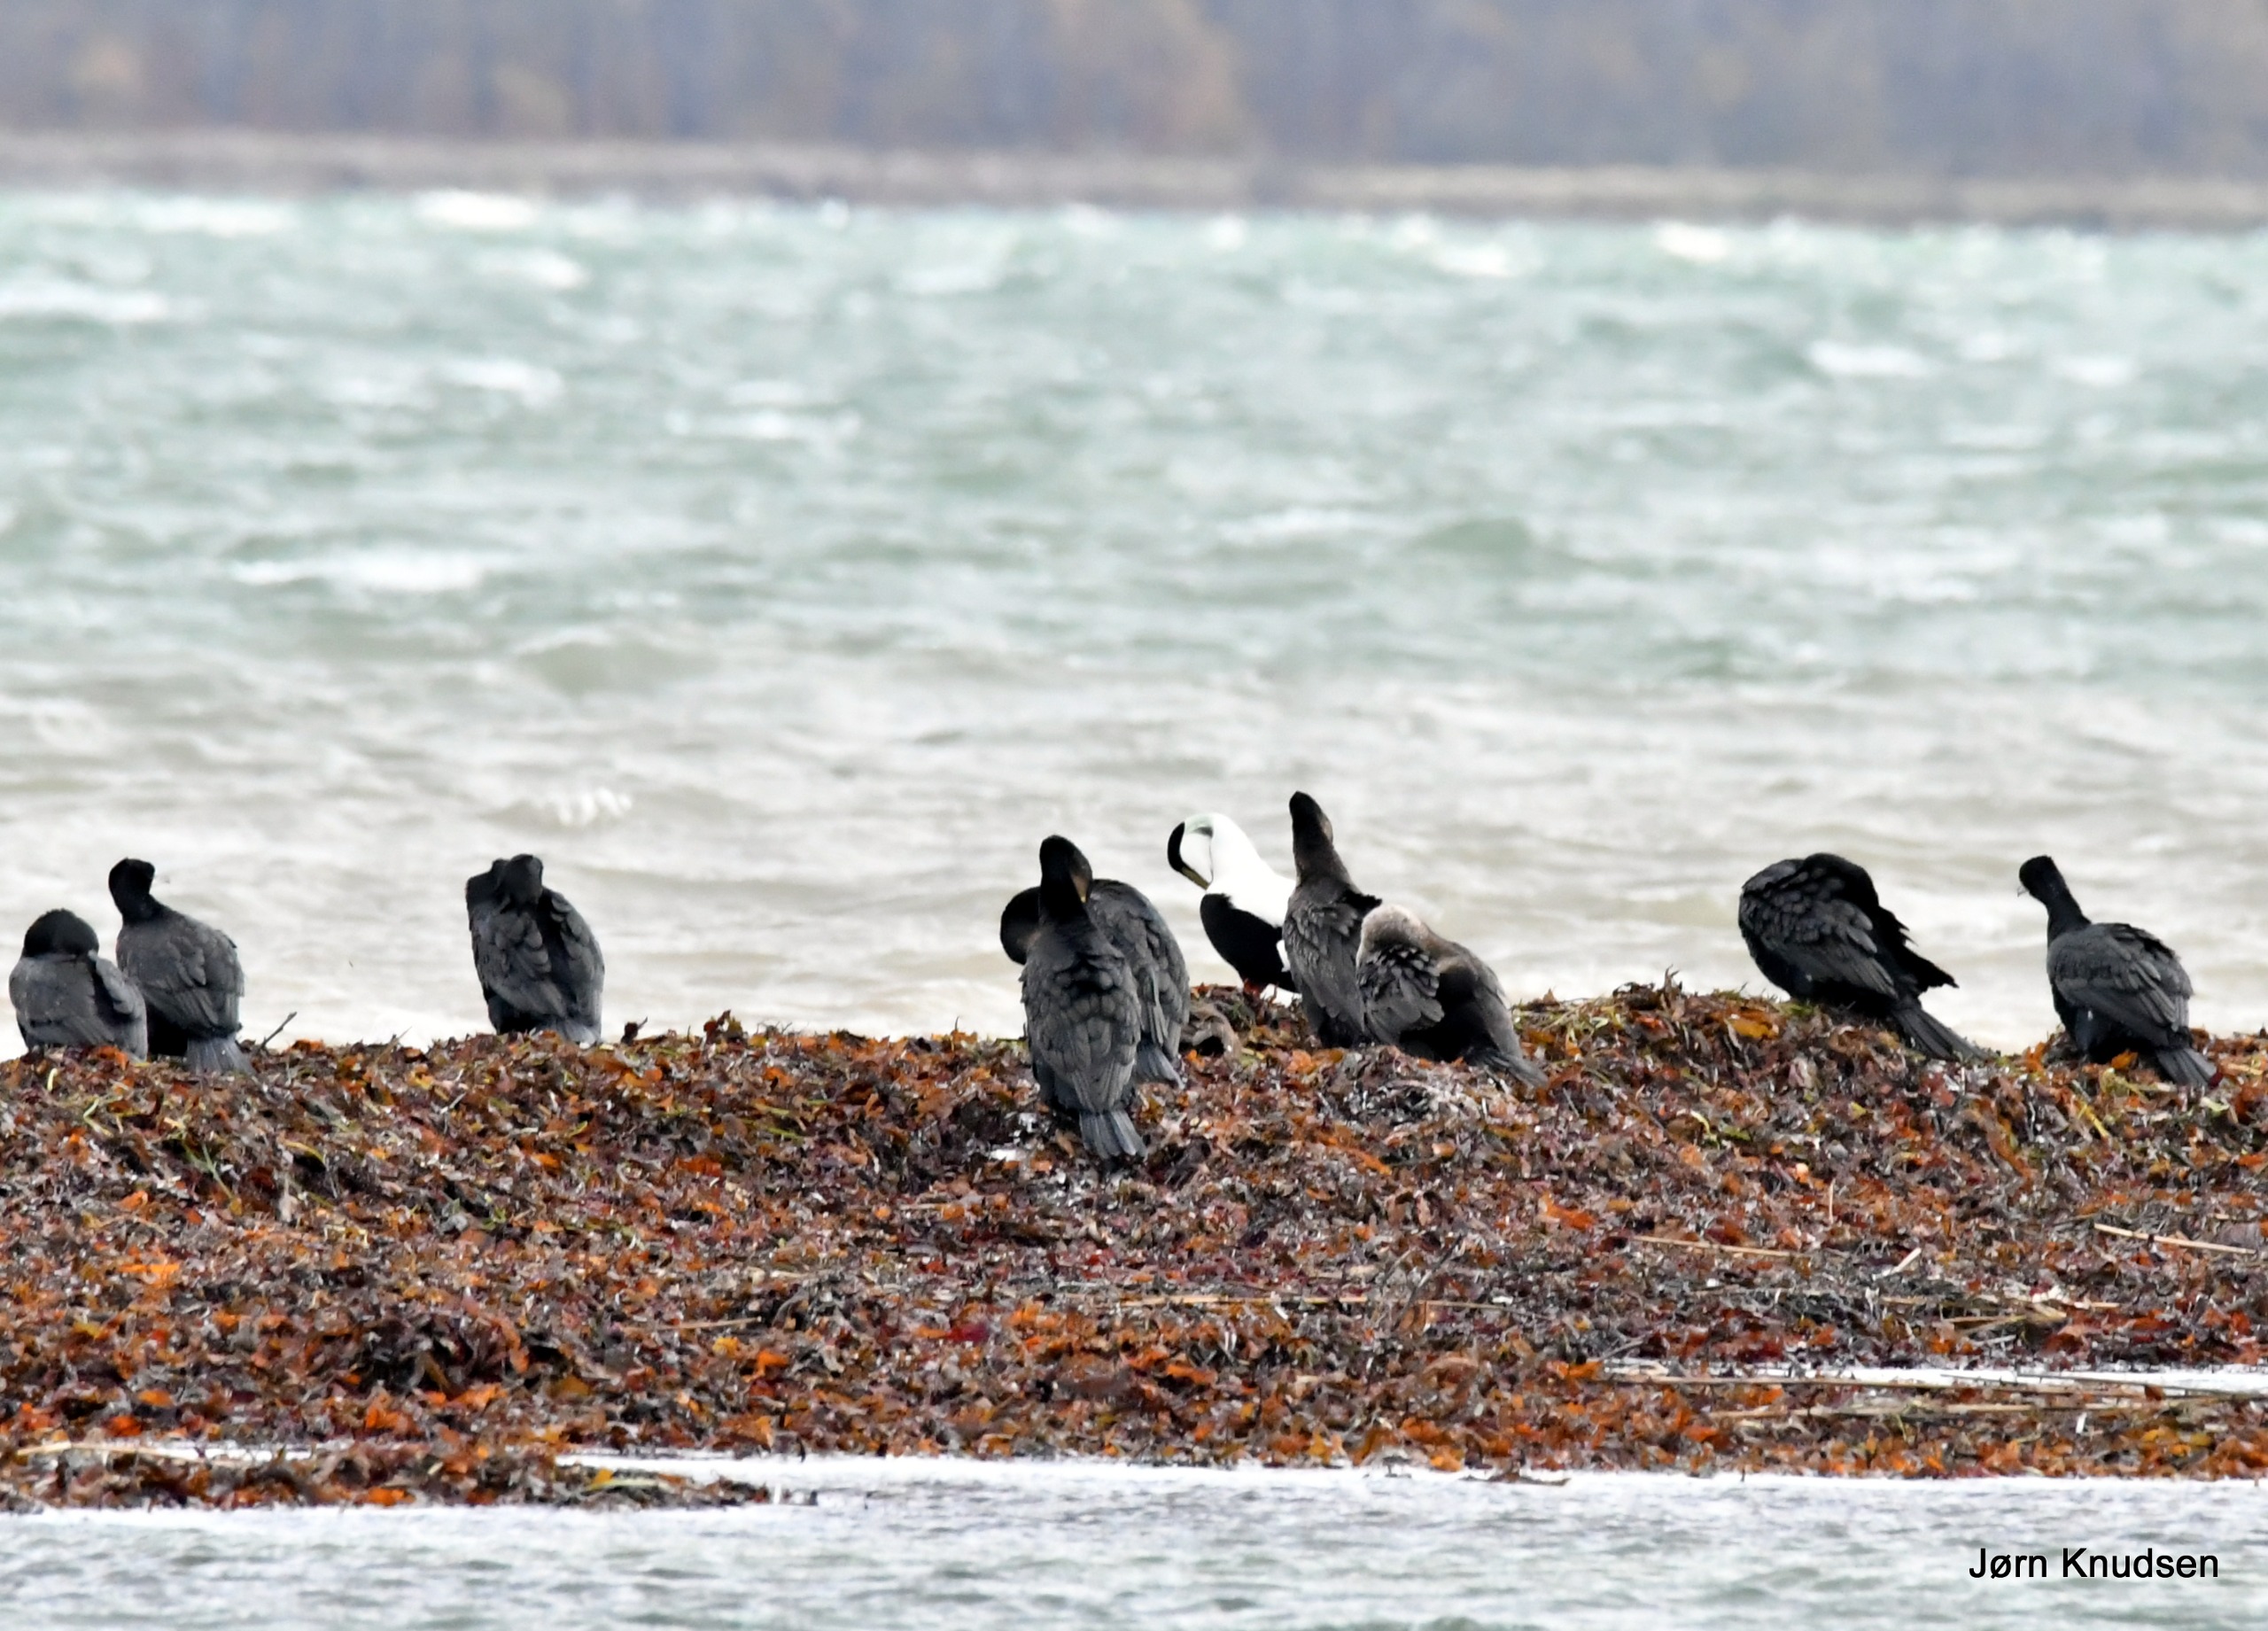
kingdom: Animalia
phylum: Chordata
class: Aves
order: Suliformes
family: Phalacrocoracidae
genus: Phalacrocorax
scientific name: Phalacrocorax carbo
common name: Skarv
